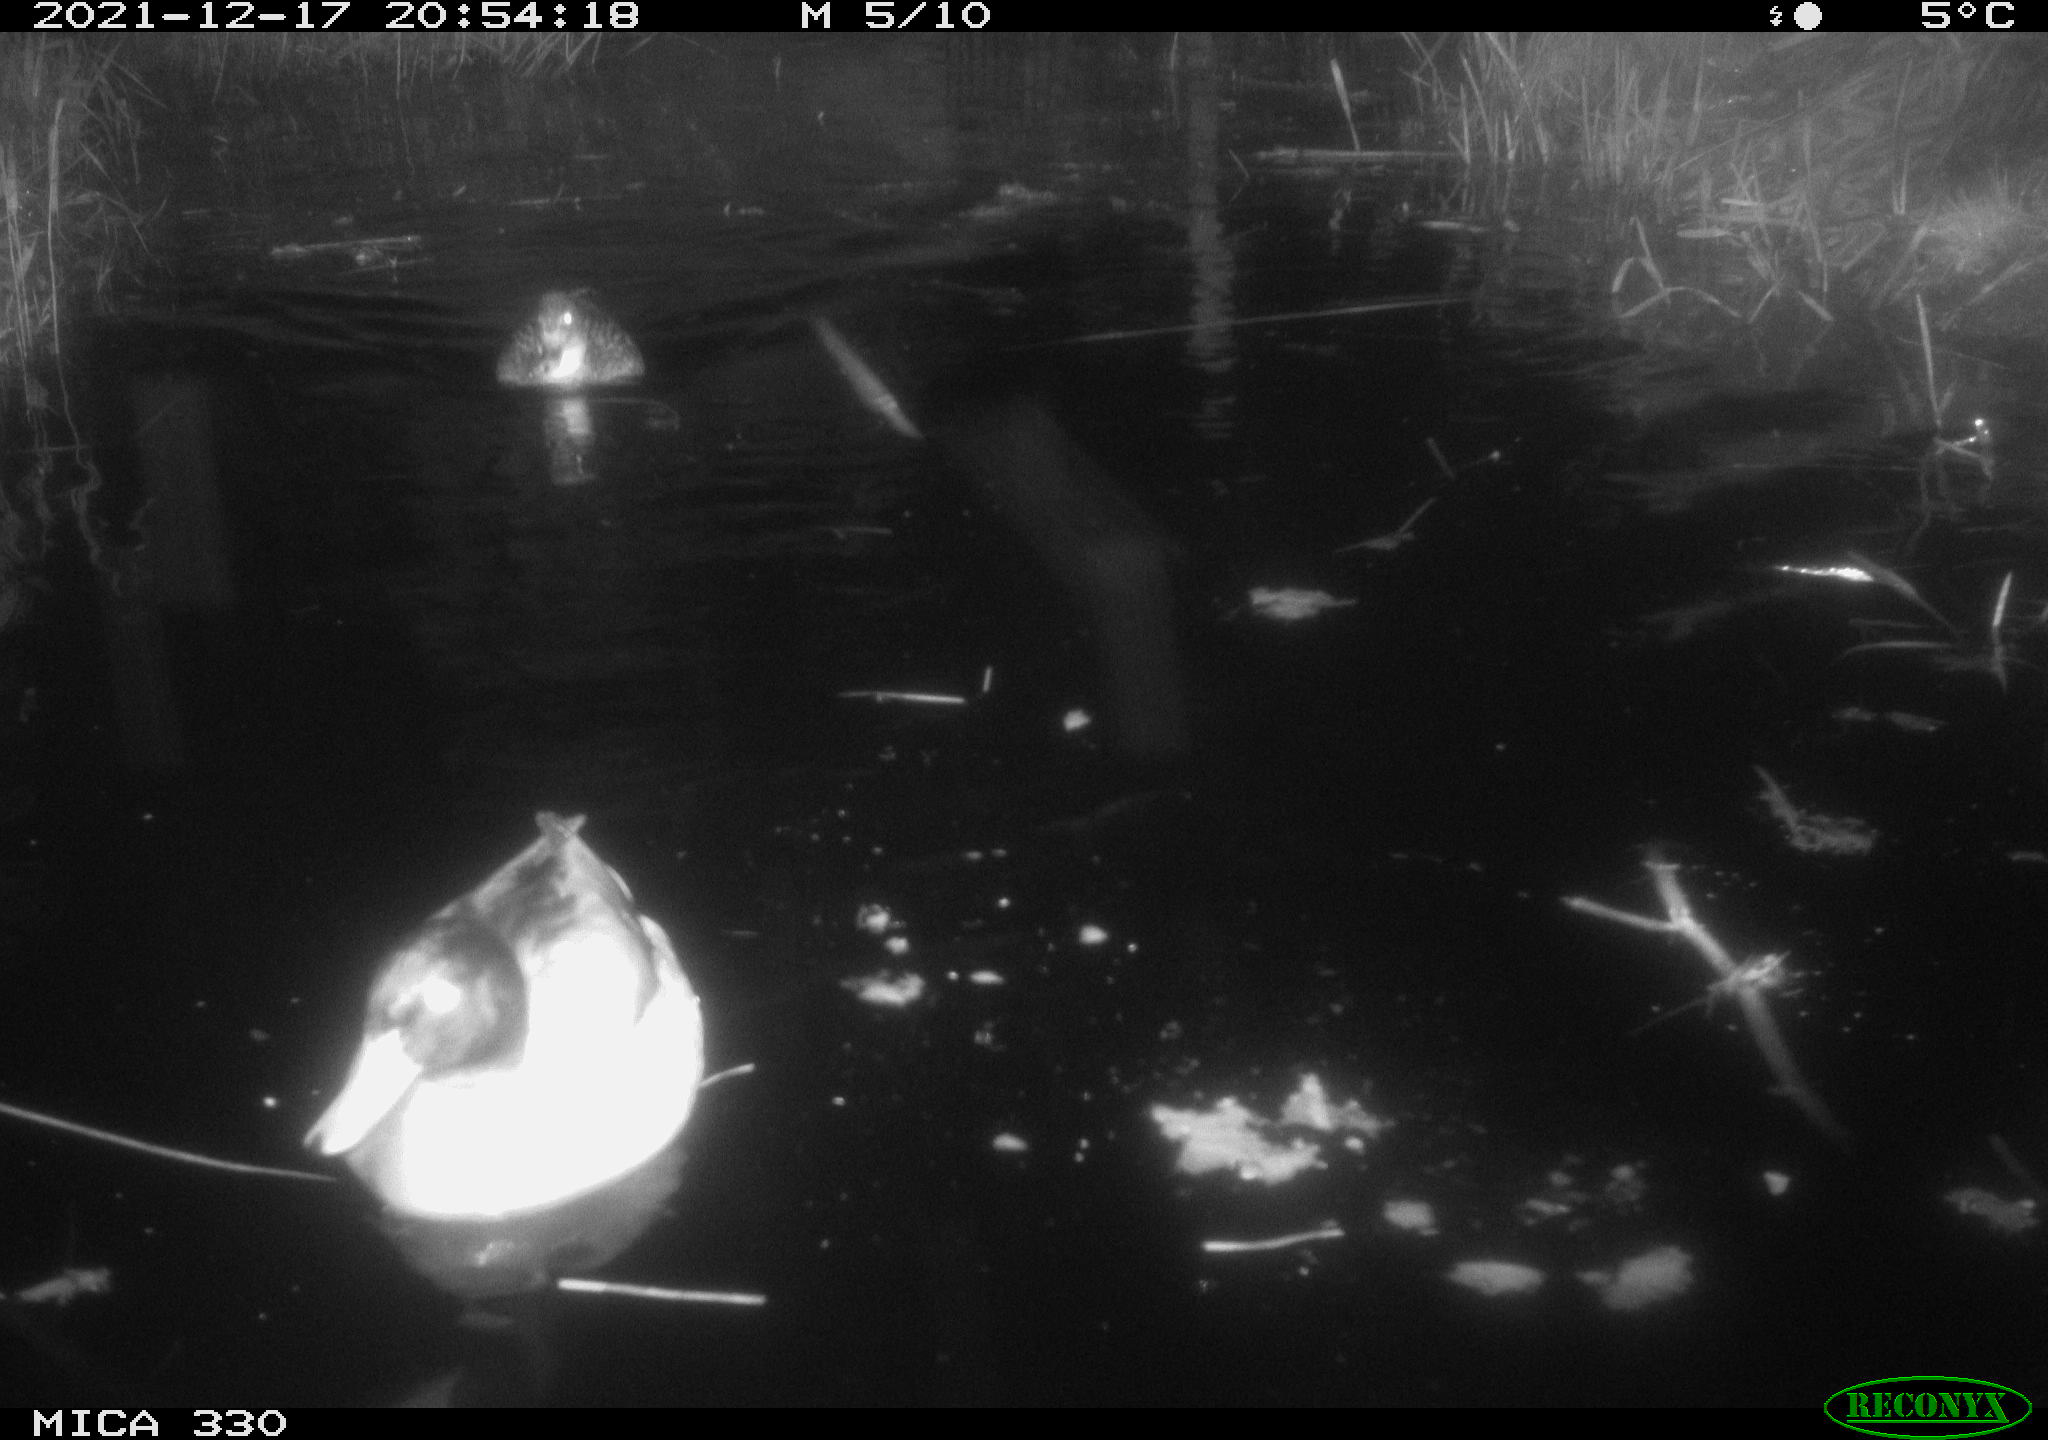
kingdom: Animalia
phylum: Chordata
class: Aves
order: Anseriformes
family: Anatidae
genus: Anas
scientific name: Anas platyrhynchos
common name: Mallard
